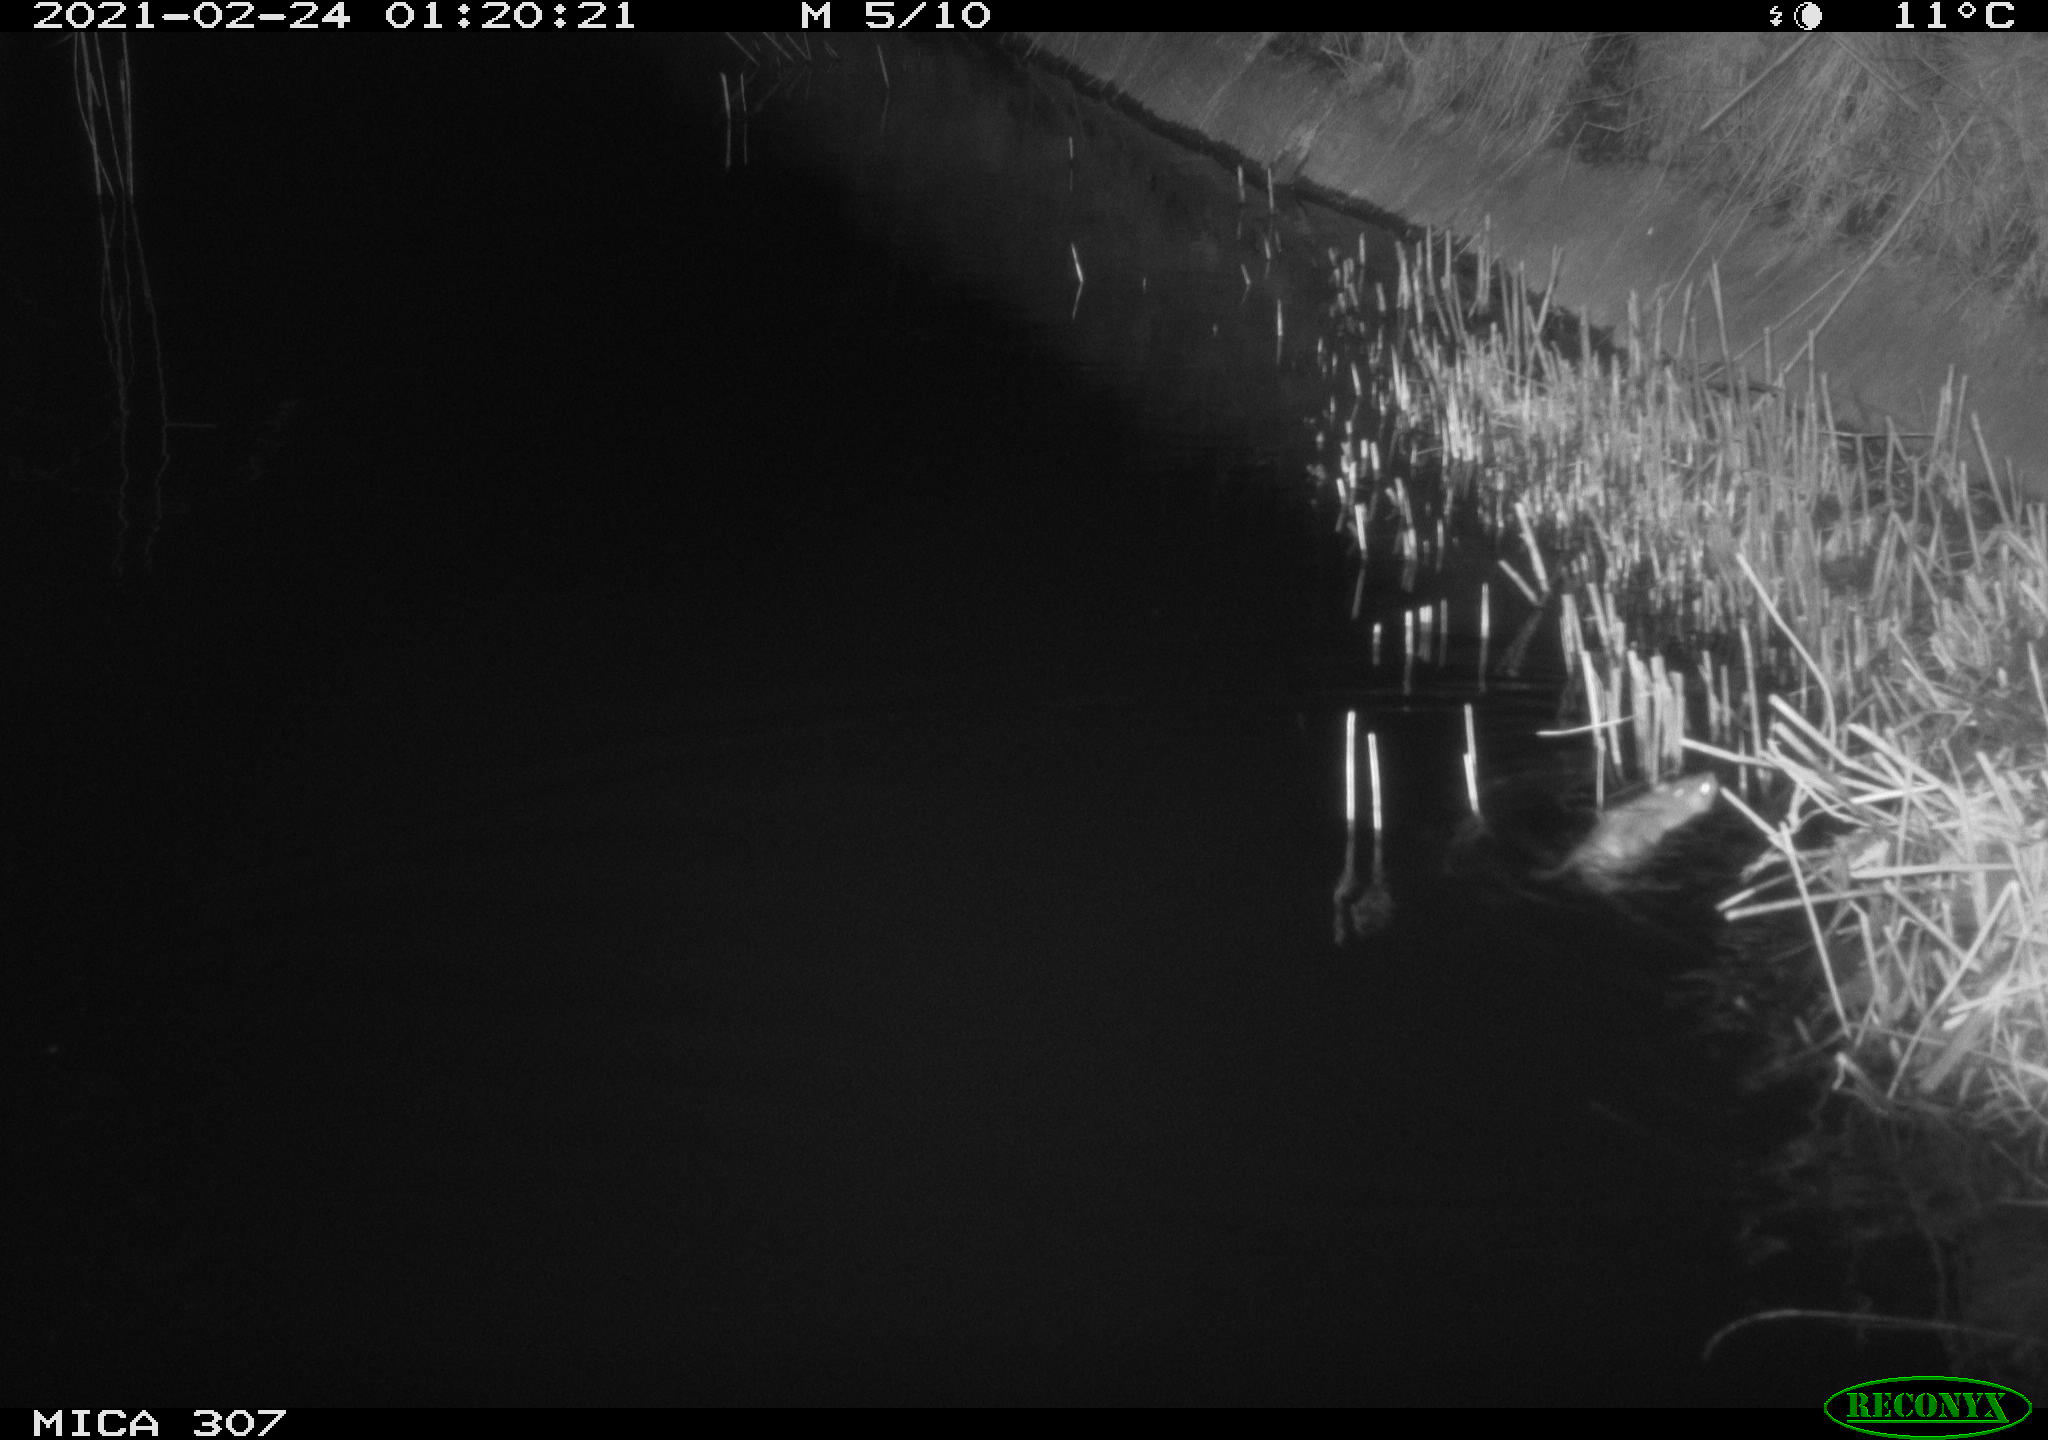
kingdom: Animalia
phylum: Chordata
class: Mammalia
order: Rodentia
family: Muridae
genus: Rattus
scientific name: Rattus norvegicus
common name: Brown rat
